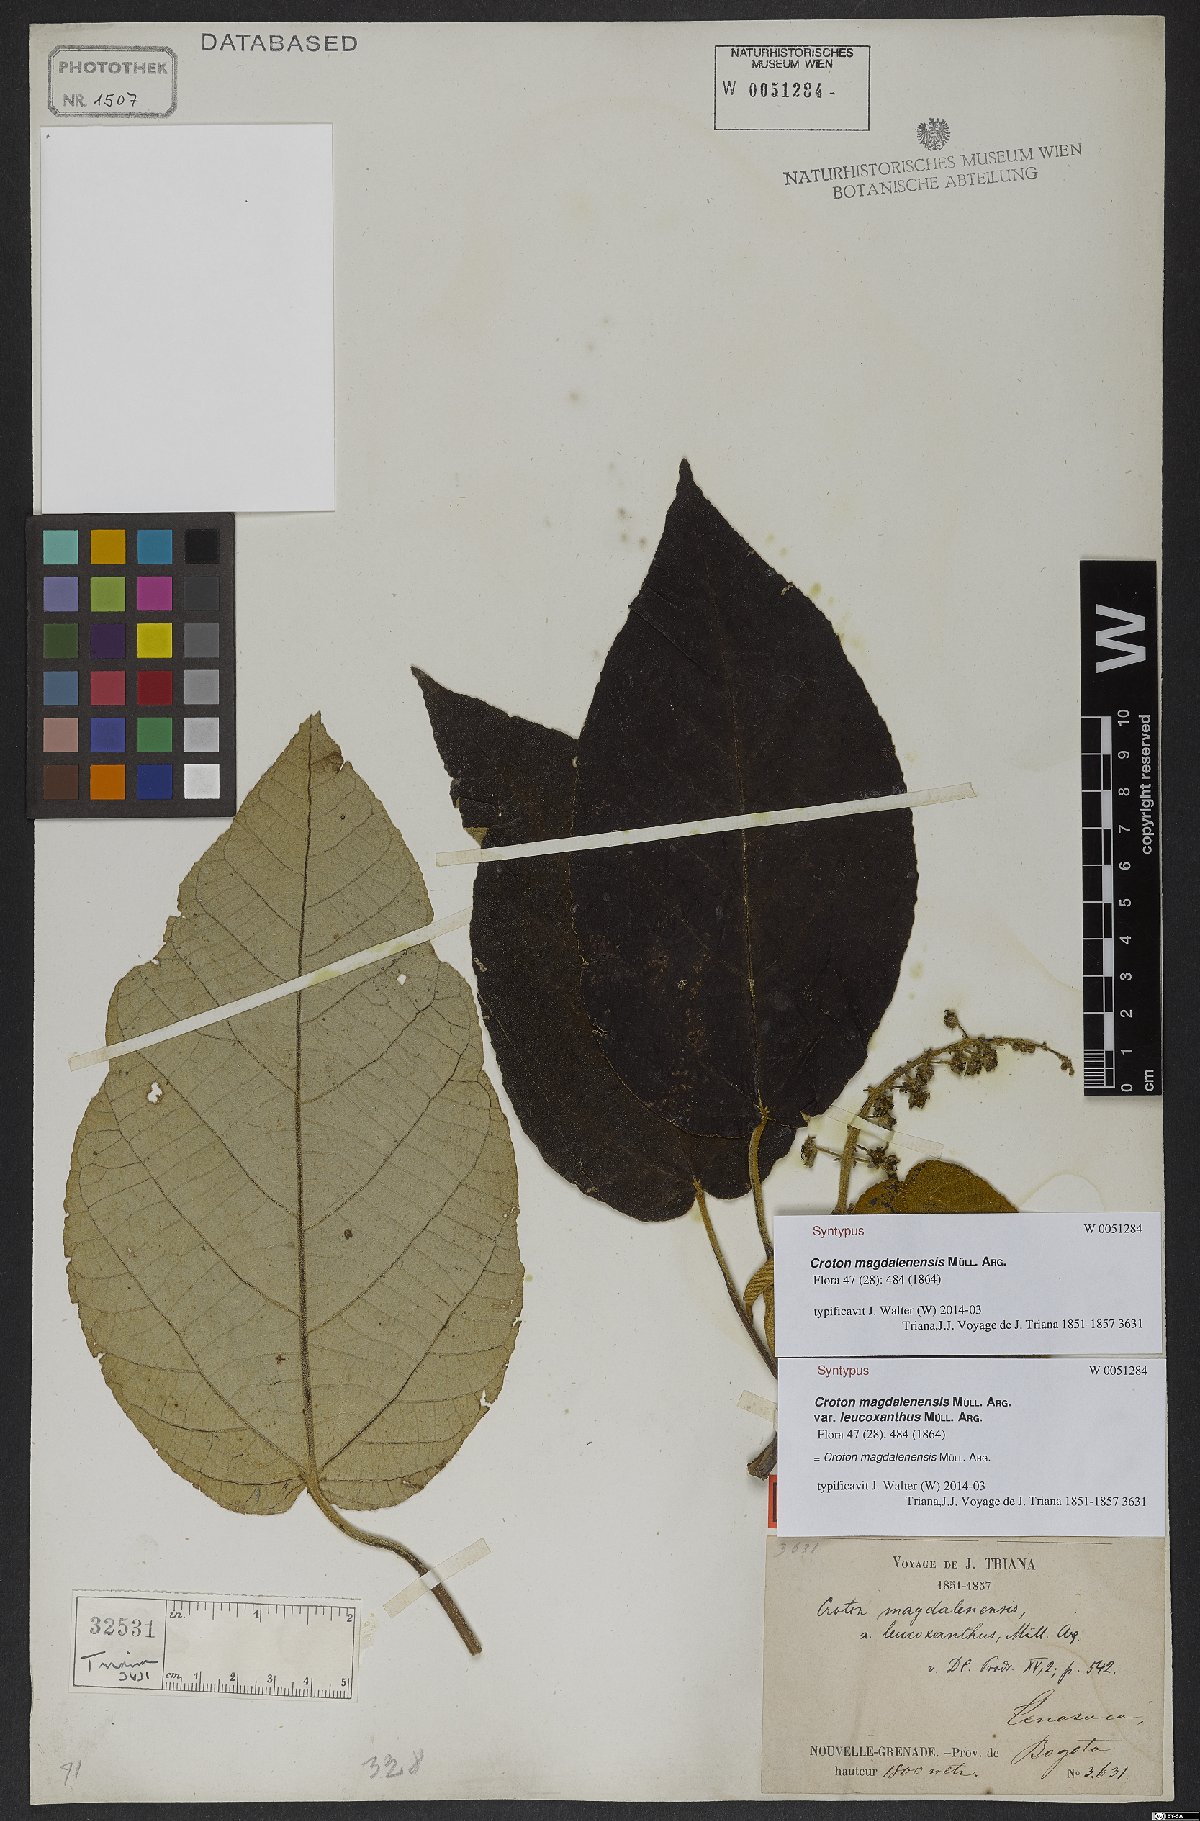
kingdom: Plantae
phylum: Tracheophyta
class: Magnoliopsida
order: Malpighiales
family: Euphorbiaceae
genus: Croton
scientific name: Croton mutisianus
